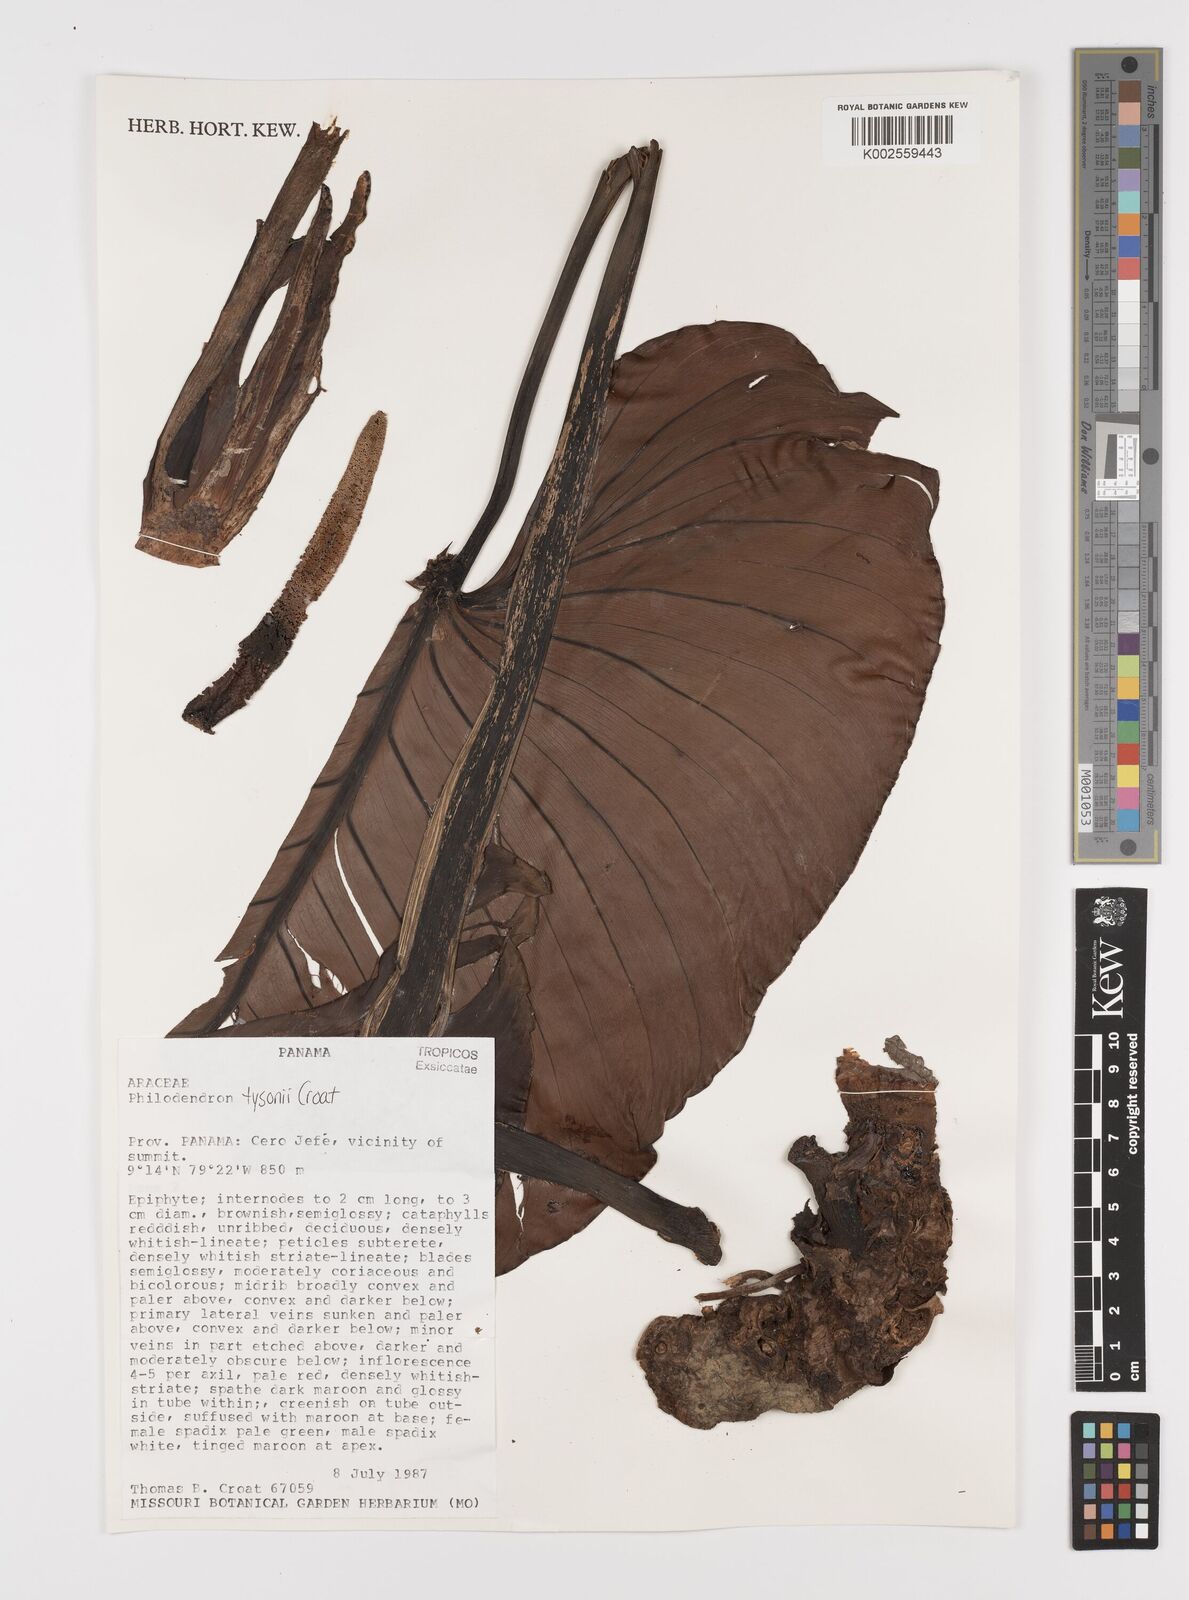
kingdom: Plantae
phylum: Tracheophyta
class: Liliopsida
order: Alismatales
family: Araceae
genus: Philodendron
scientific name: Philodendron tysonii
